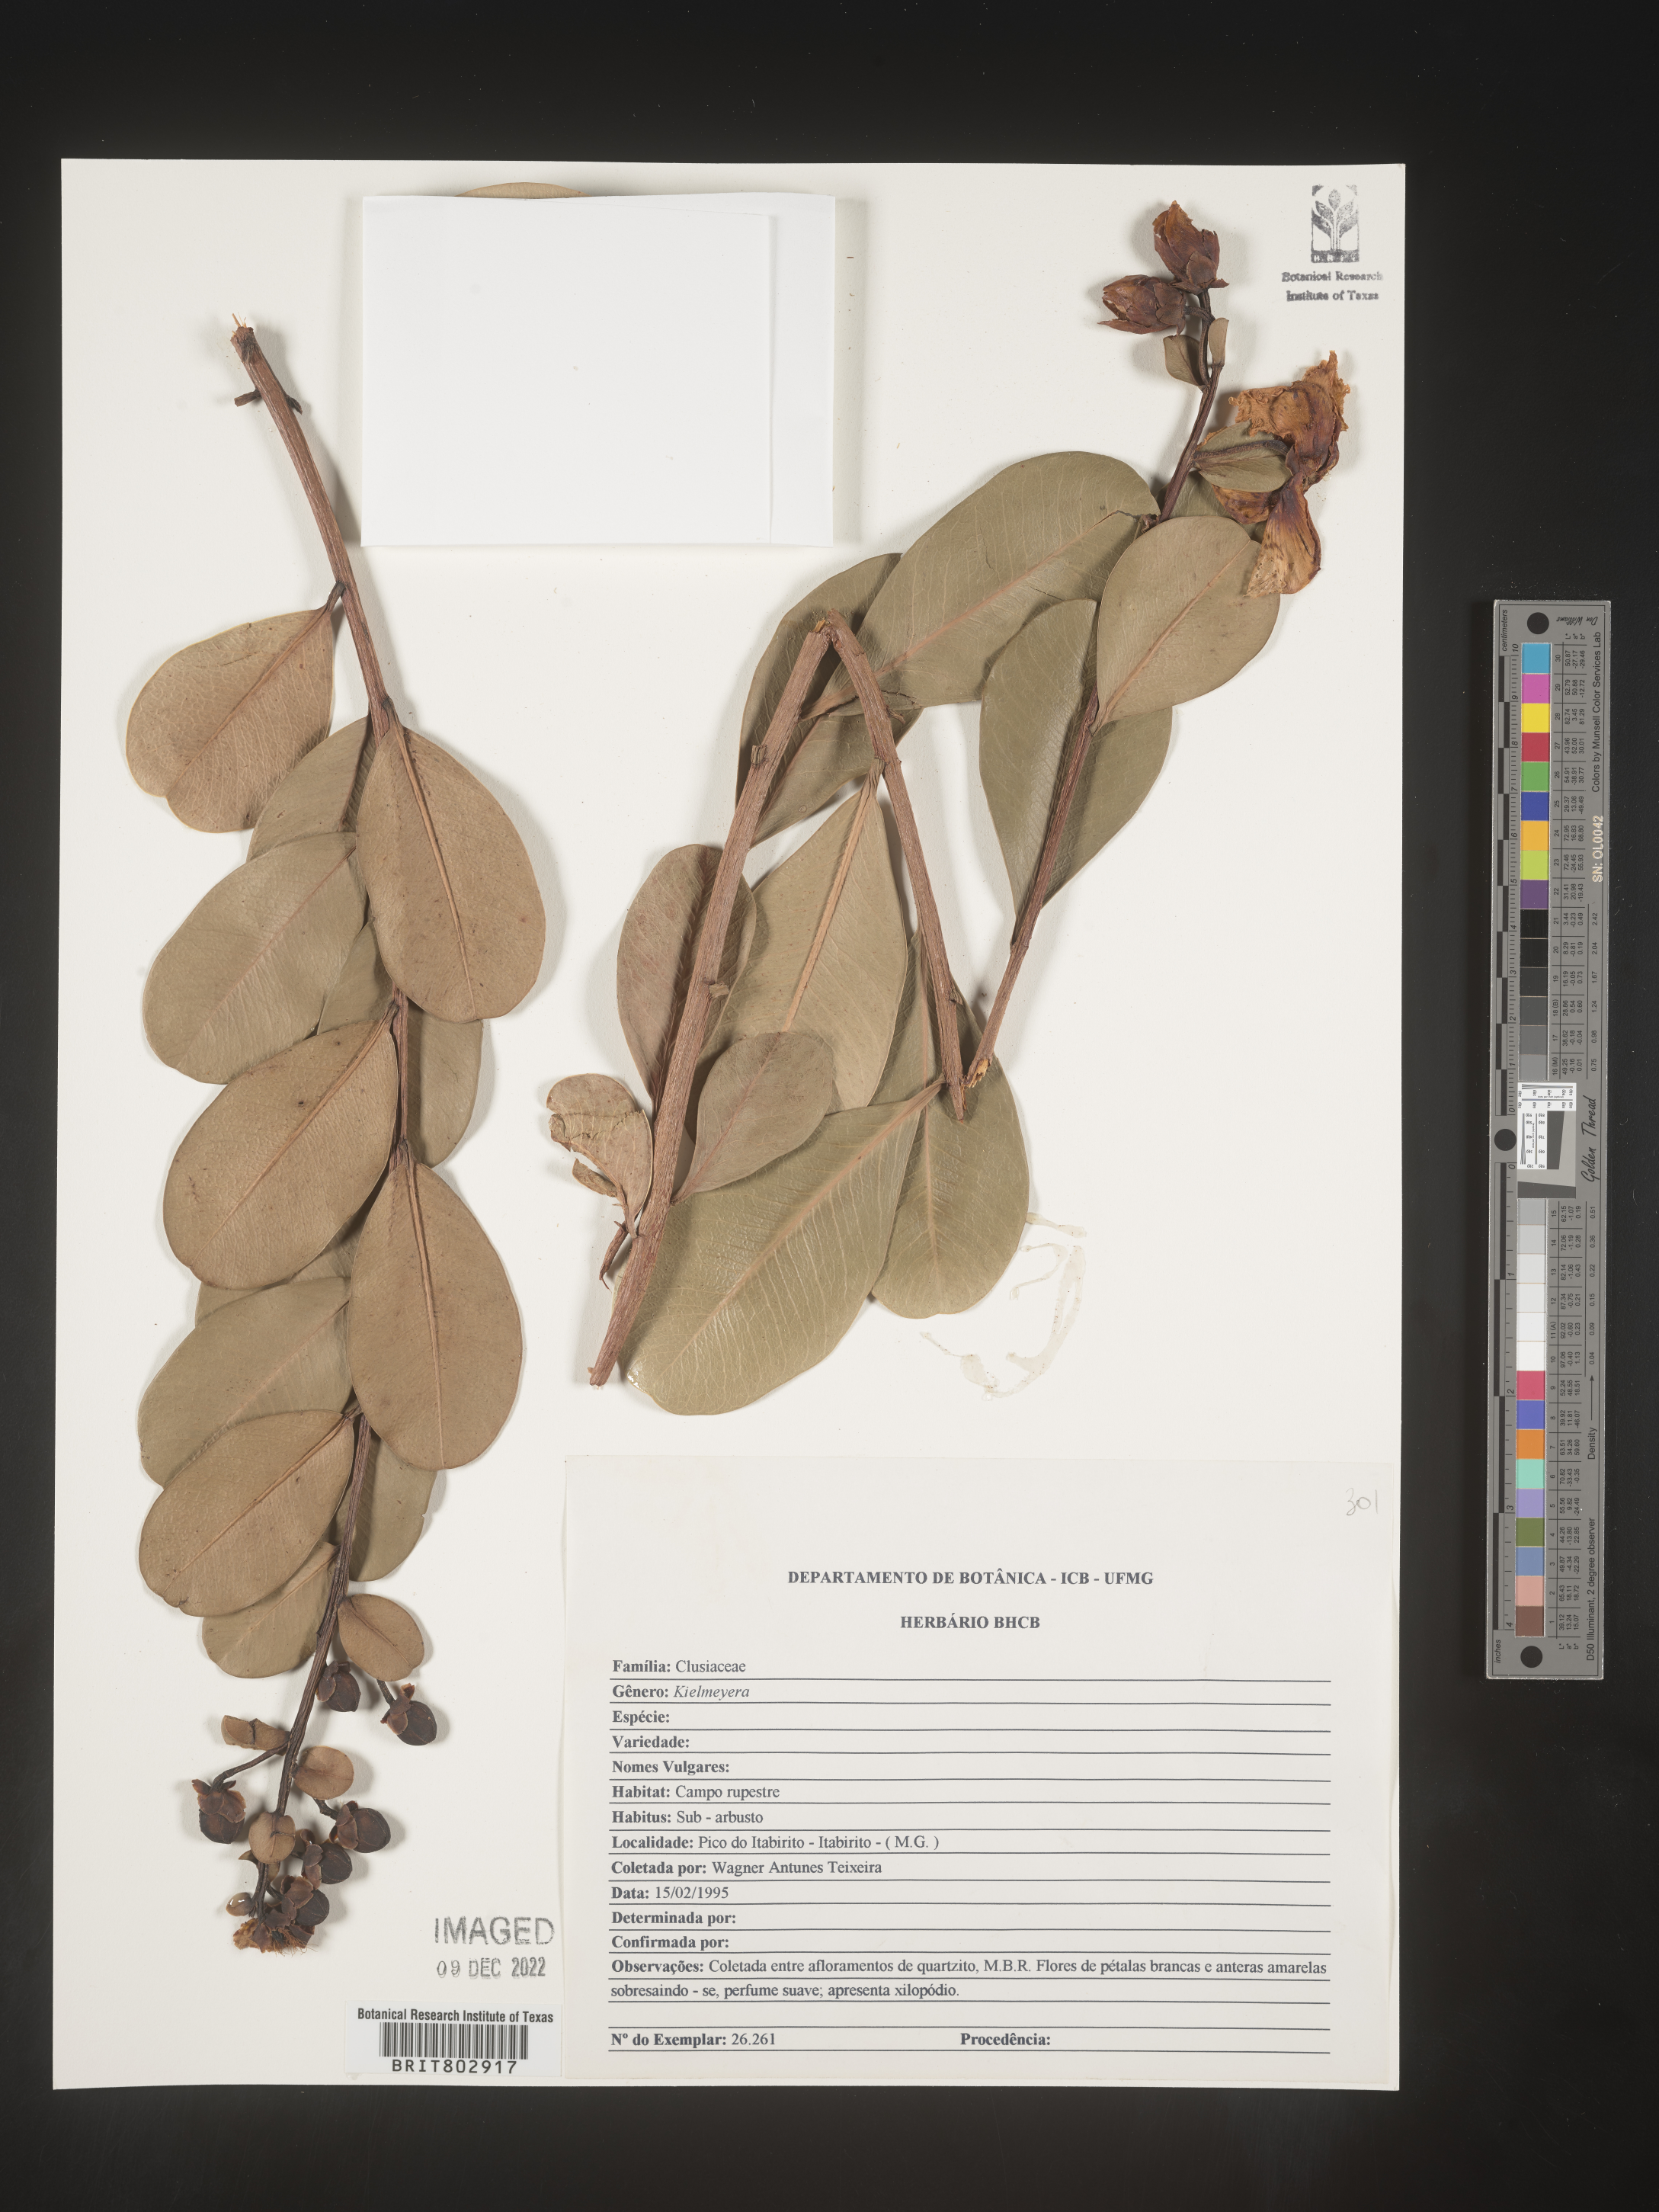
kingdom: Plantae
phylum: Tracheophyta
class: Magnoliopsida
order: Malpighiales
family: Calophyllaceae
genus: Kielmeyera
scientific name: Kielmeyera
